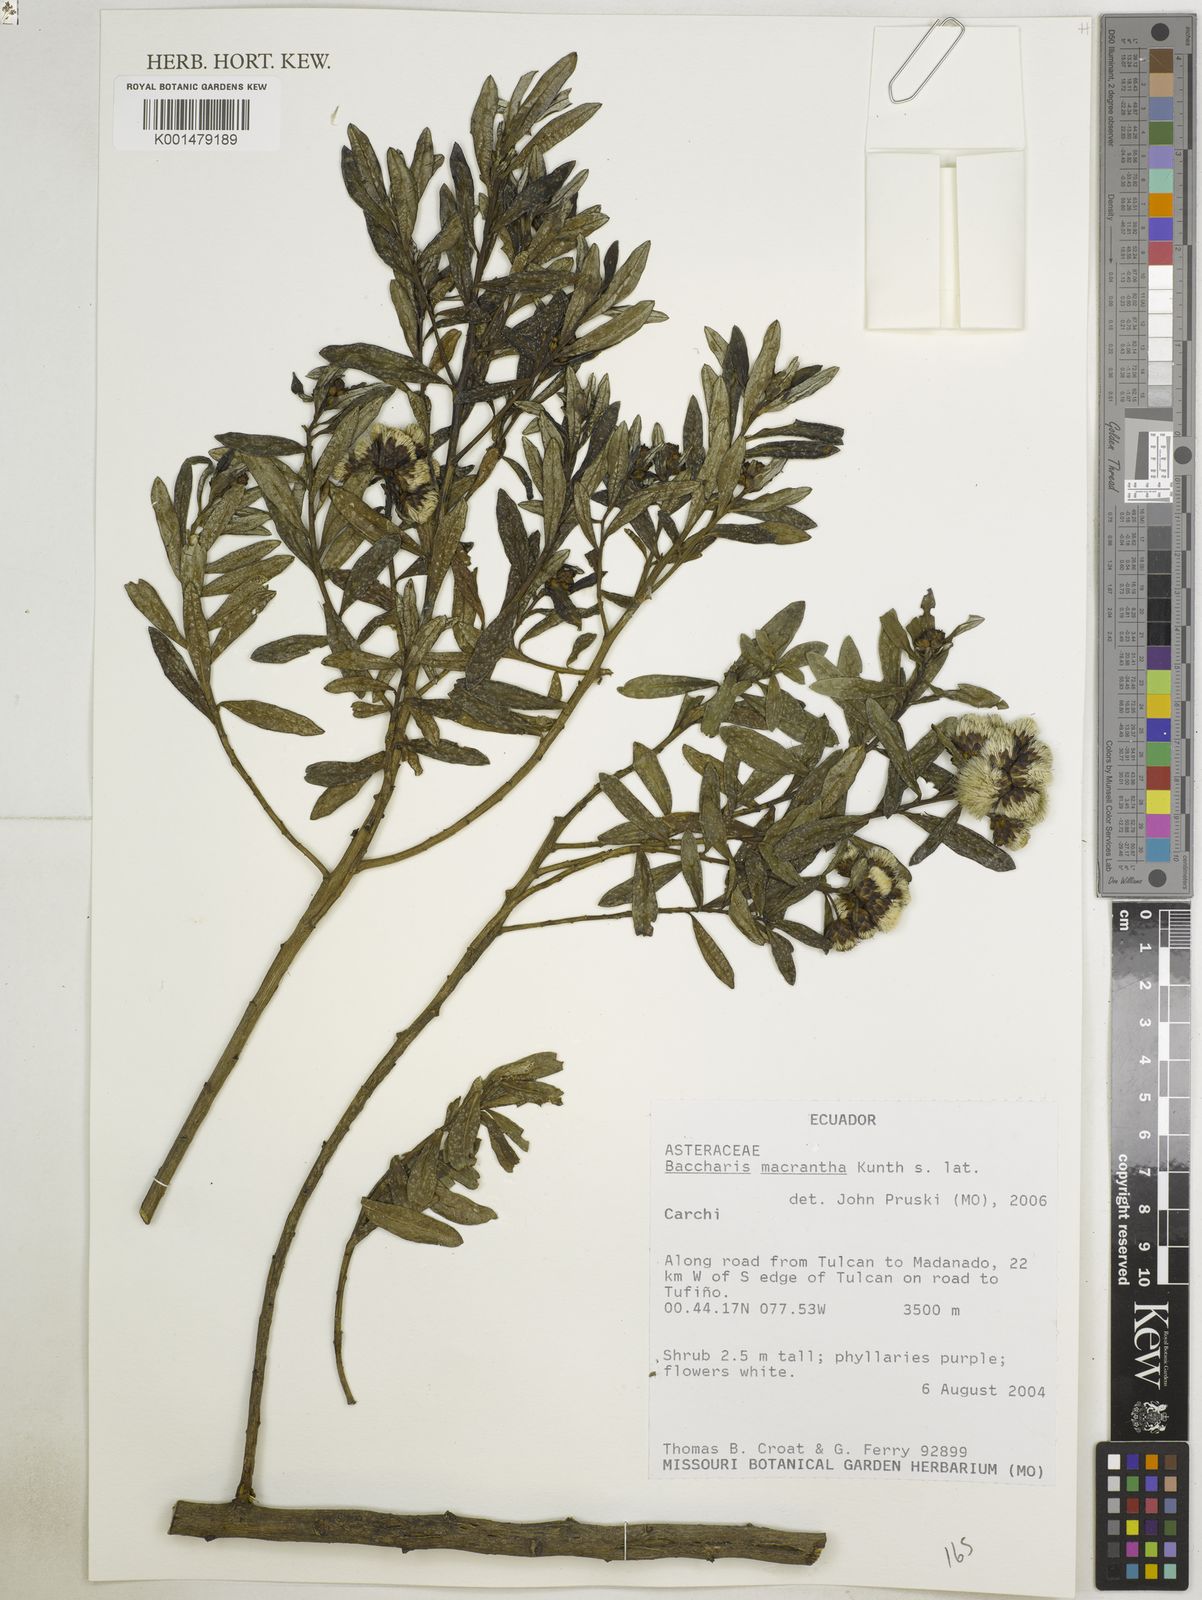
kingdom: Plantae
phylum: Tracheophyta
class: Magnoliopsida
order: Asterales
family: Asteraceae
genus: Baccharis
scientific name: Baccharis macrantha
